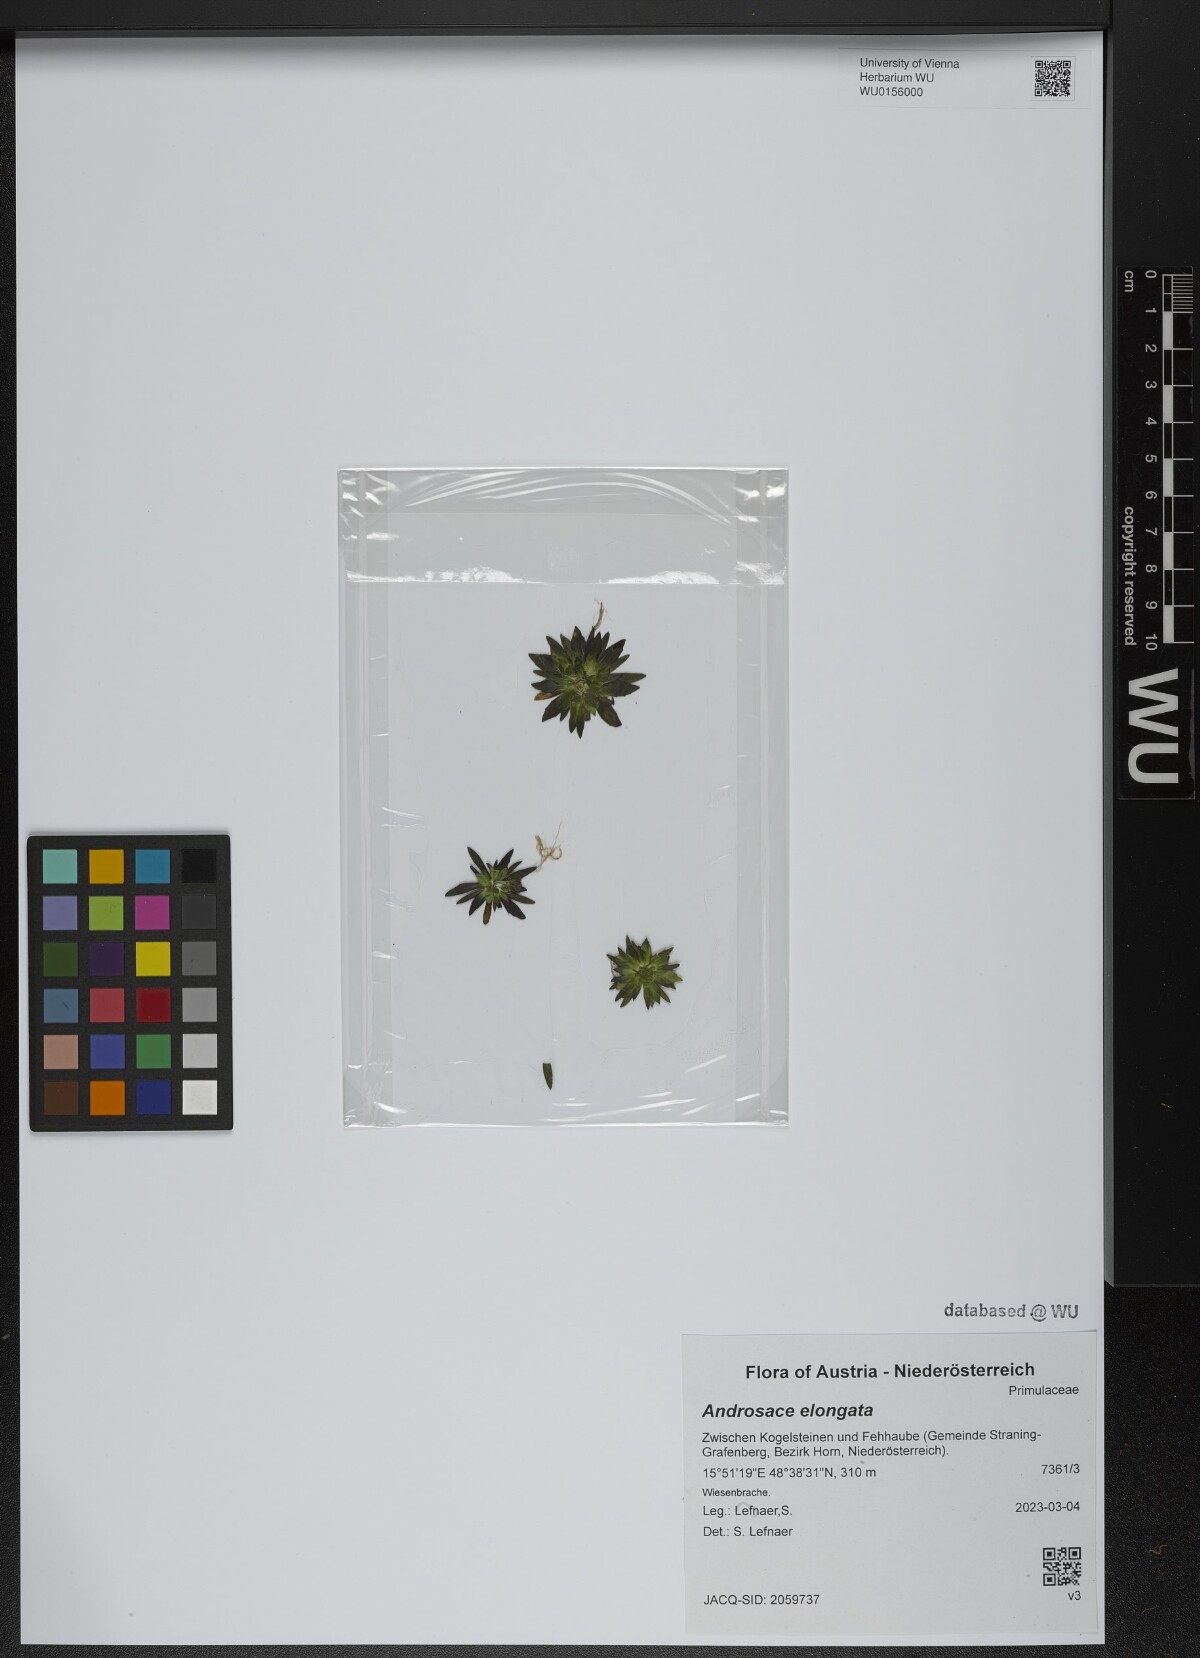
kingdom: Plantae
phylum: Tracheophyta
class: Magnoliopsida
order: Ericales
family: Primulaceae
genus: Androsace
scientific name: Androsace elongata
